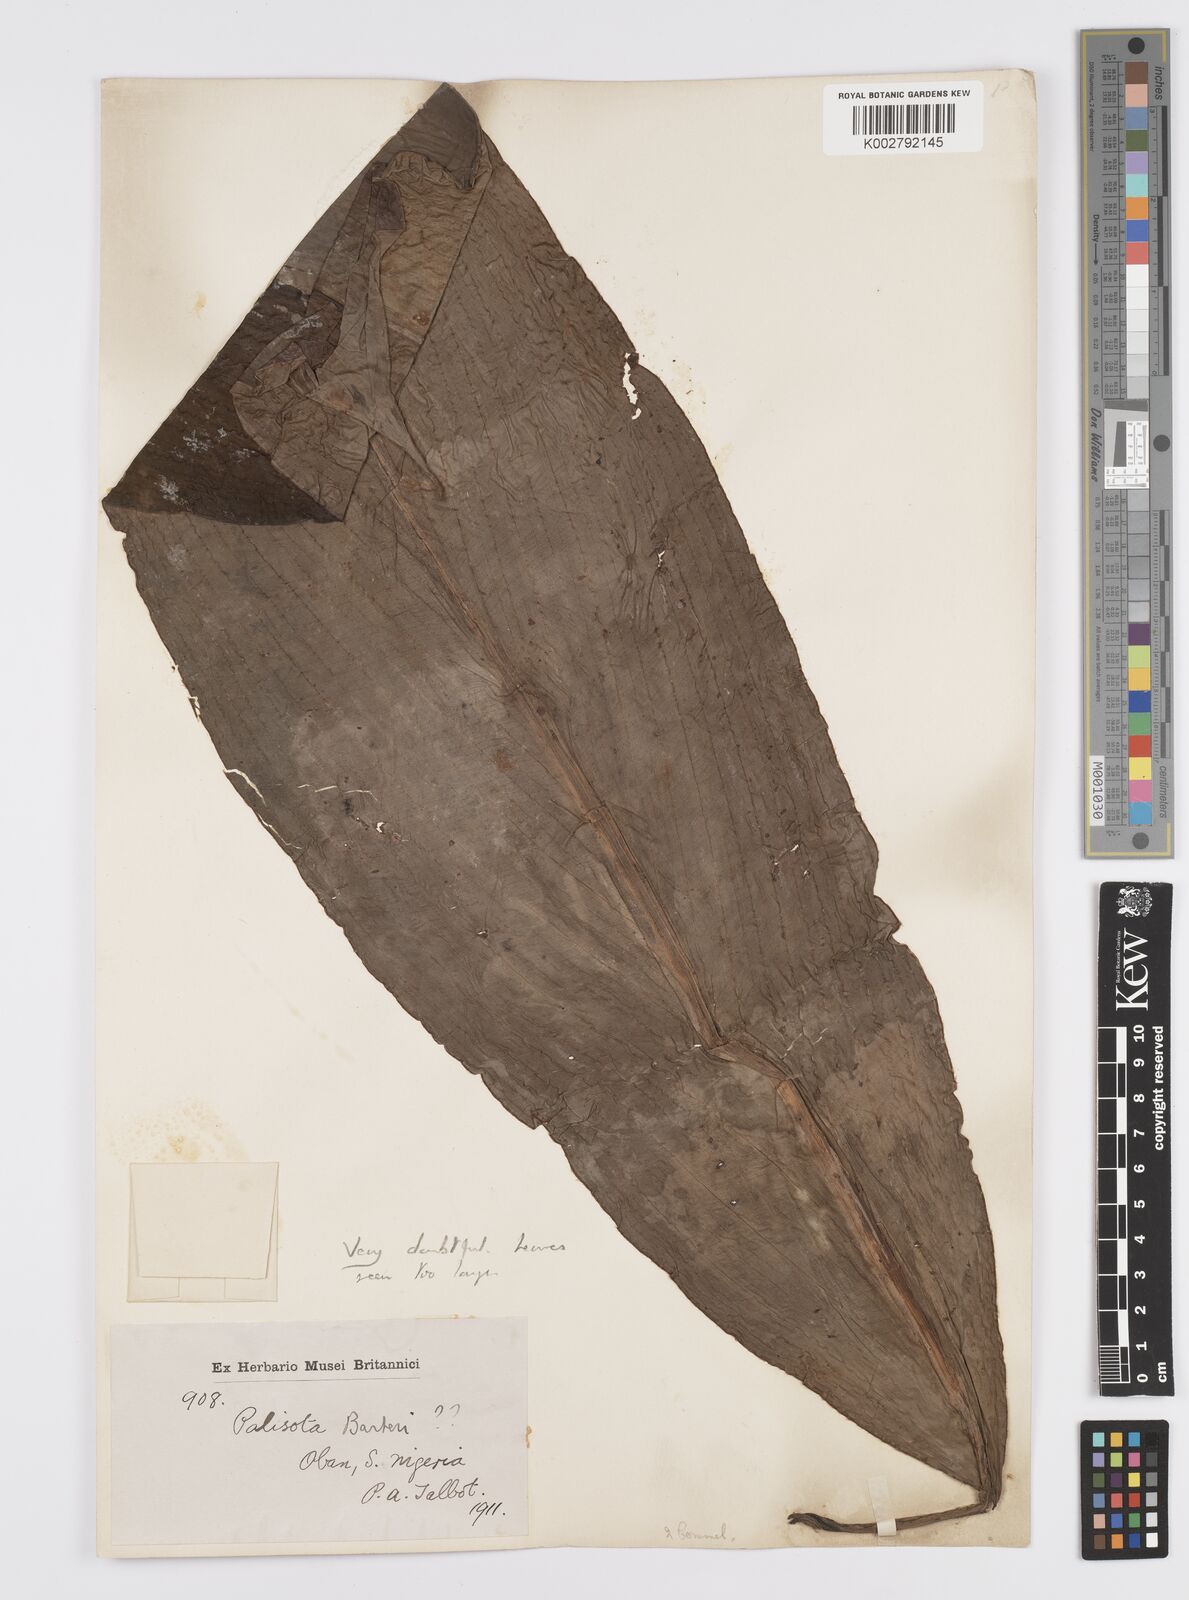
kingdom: Plantae
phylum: Tracheophyta
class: Liliopsida
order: Commelinales
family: Commelinaceae
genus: Palisota
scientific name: Palisota mannii
